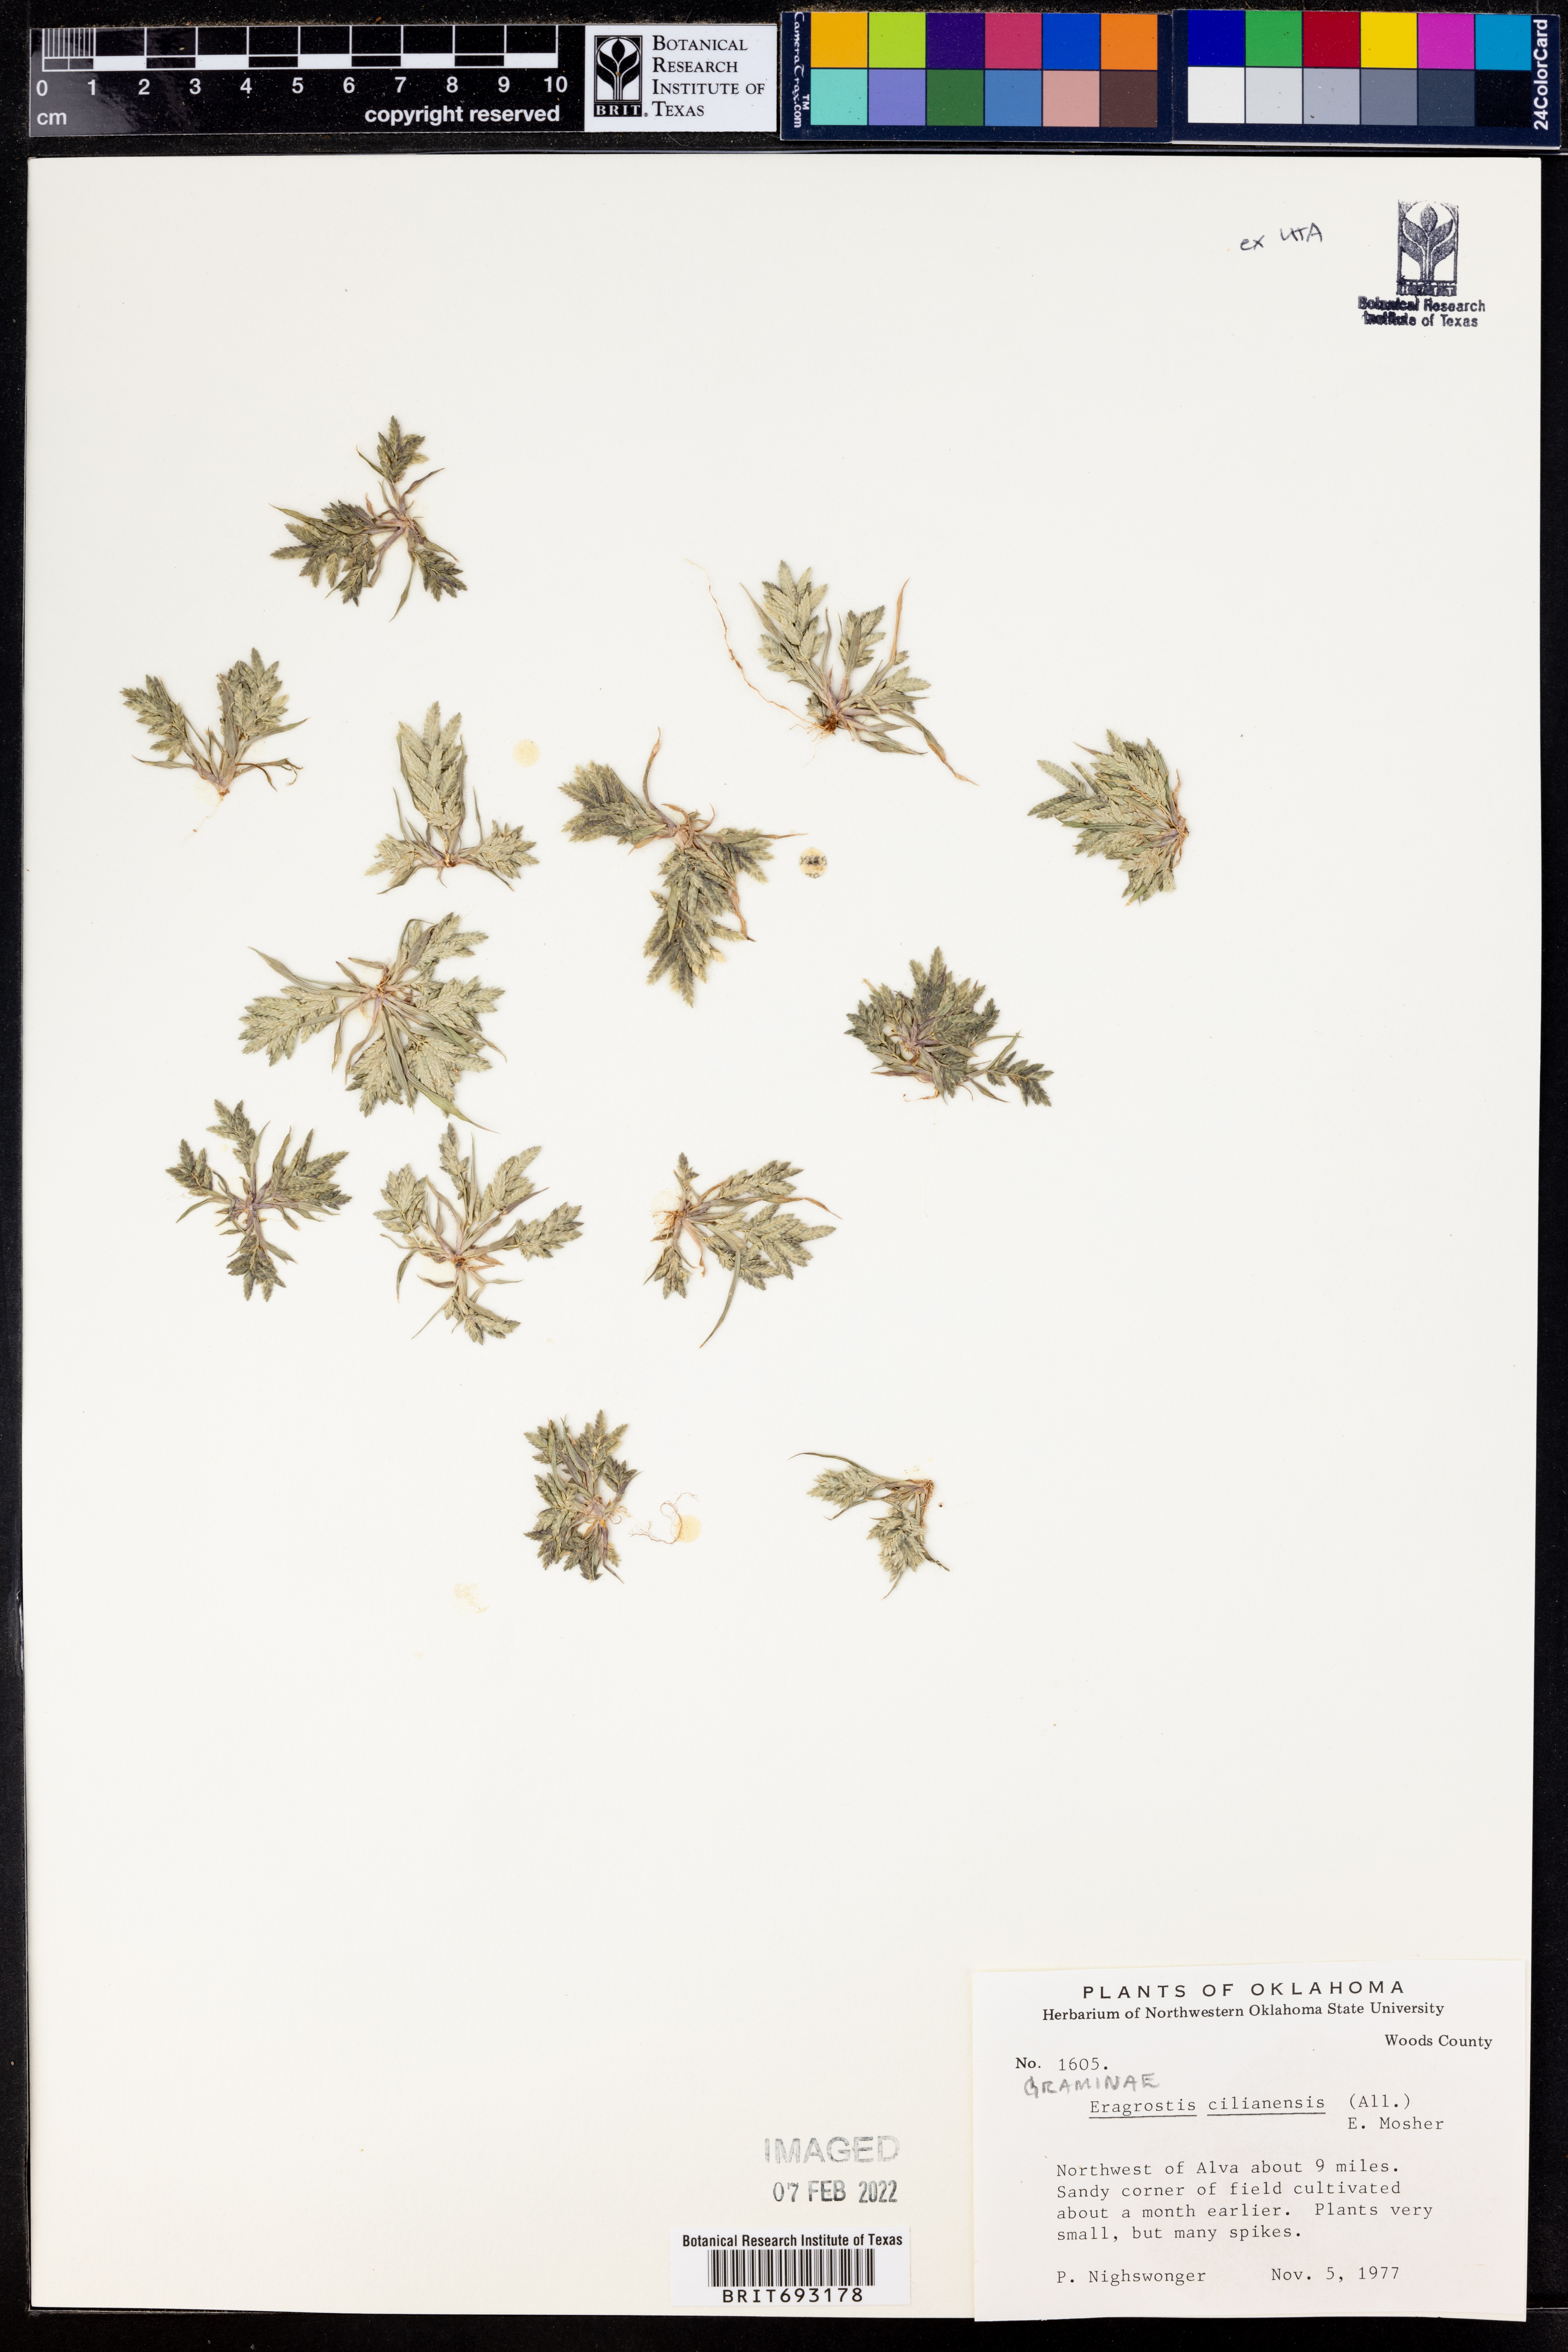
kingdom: Plantae
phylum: Tracheophyta
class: Liliopsida
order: Poales
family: Poaceae
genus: Eragrostis
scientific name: Eragrostis cilianensis
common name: Stinkgrass
